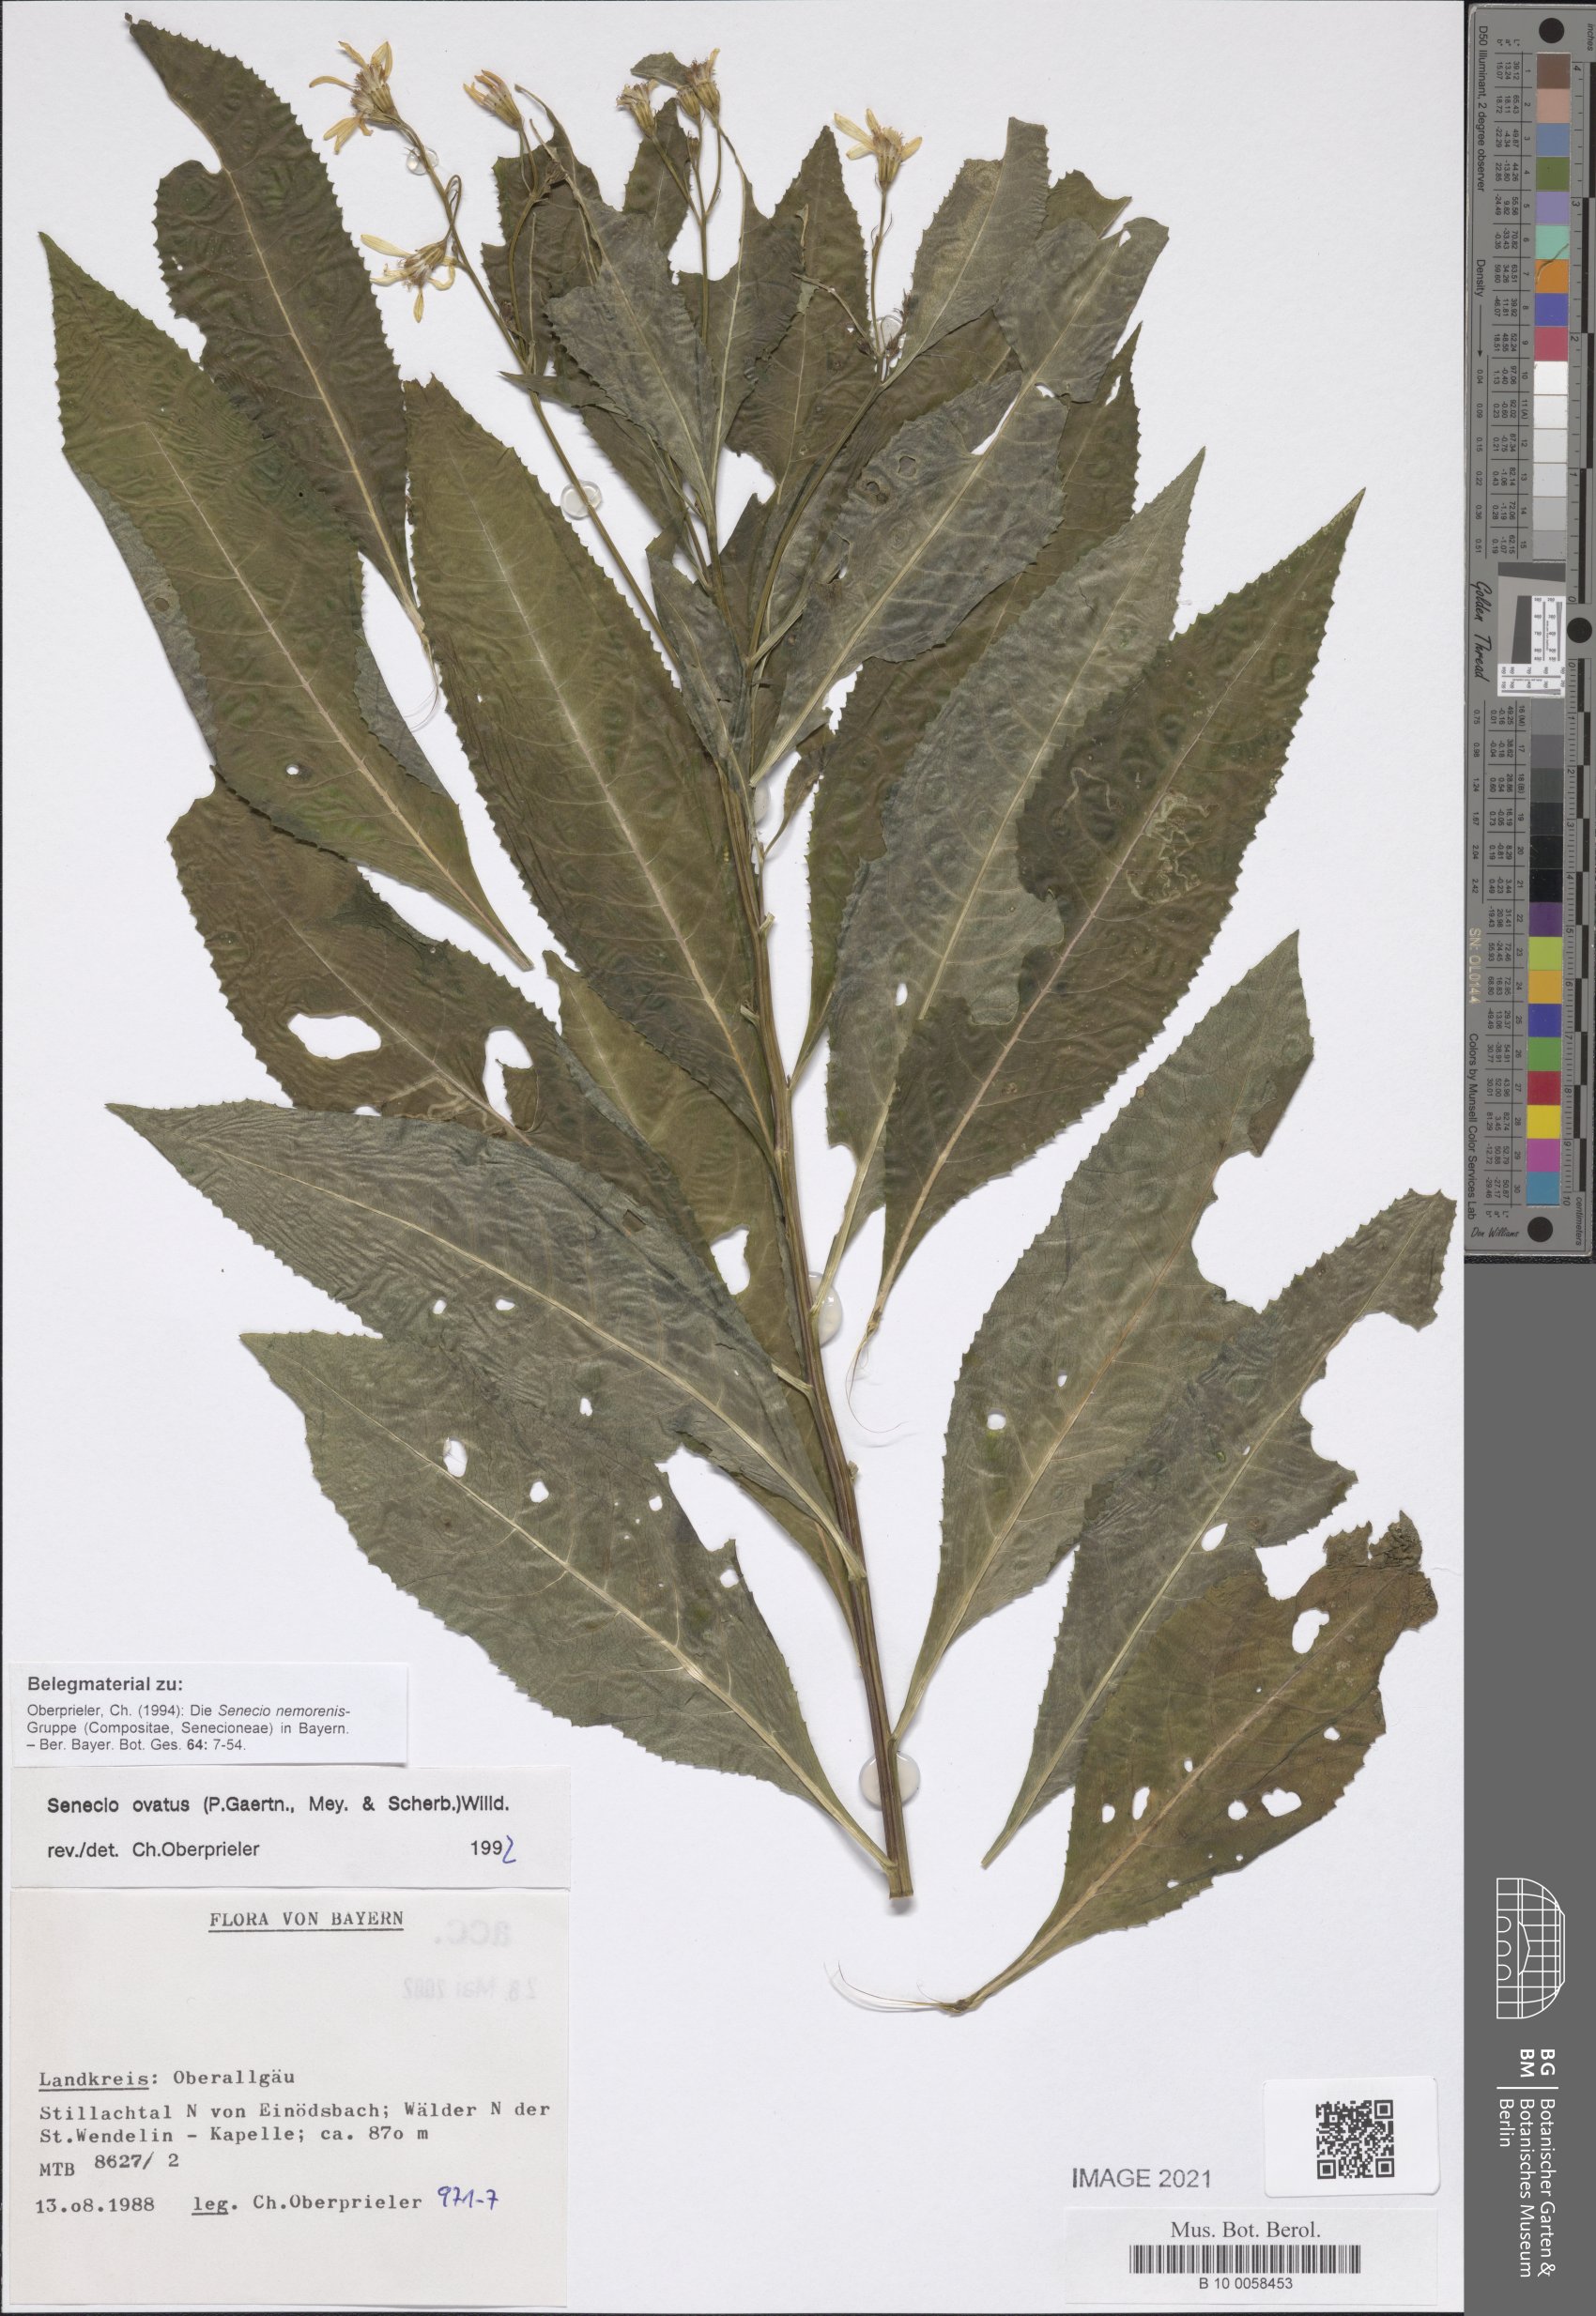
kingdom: Plantae
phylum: Tracheophyta
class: Magnoliopsida
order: Asterales
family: Asteraceae
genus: Senecio
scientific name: Senecio ovatus
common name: Wood ragwort
